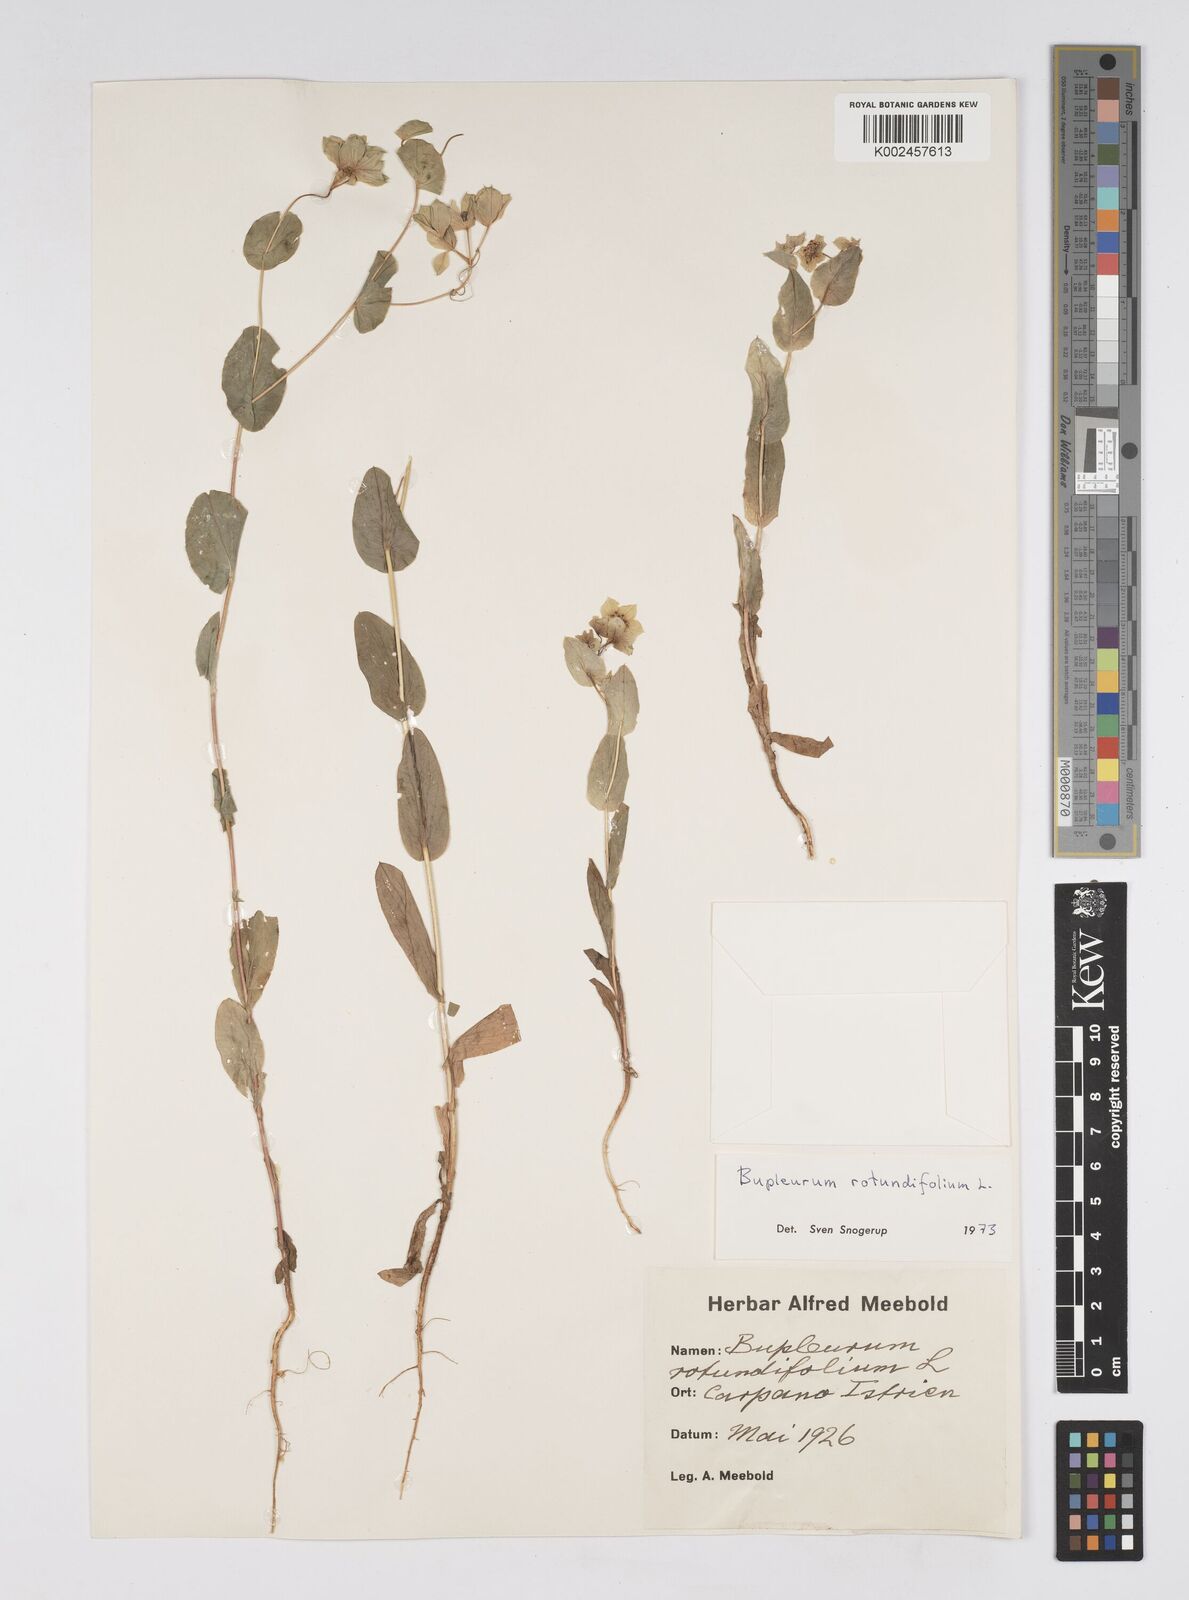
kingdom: Plantae
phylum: Tracheophyta
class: Magnoliopsida
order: Apiales
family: Apiaceae
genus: Bupleurum
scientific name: Bupleurum rotundifolium
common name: Thorow-wax
